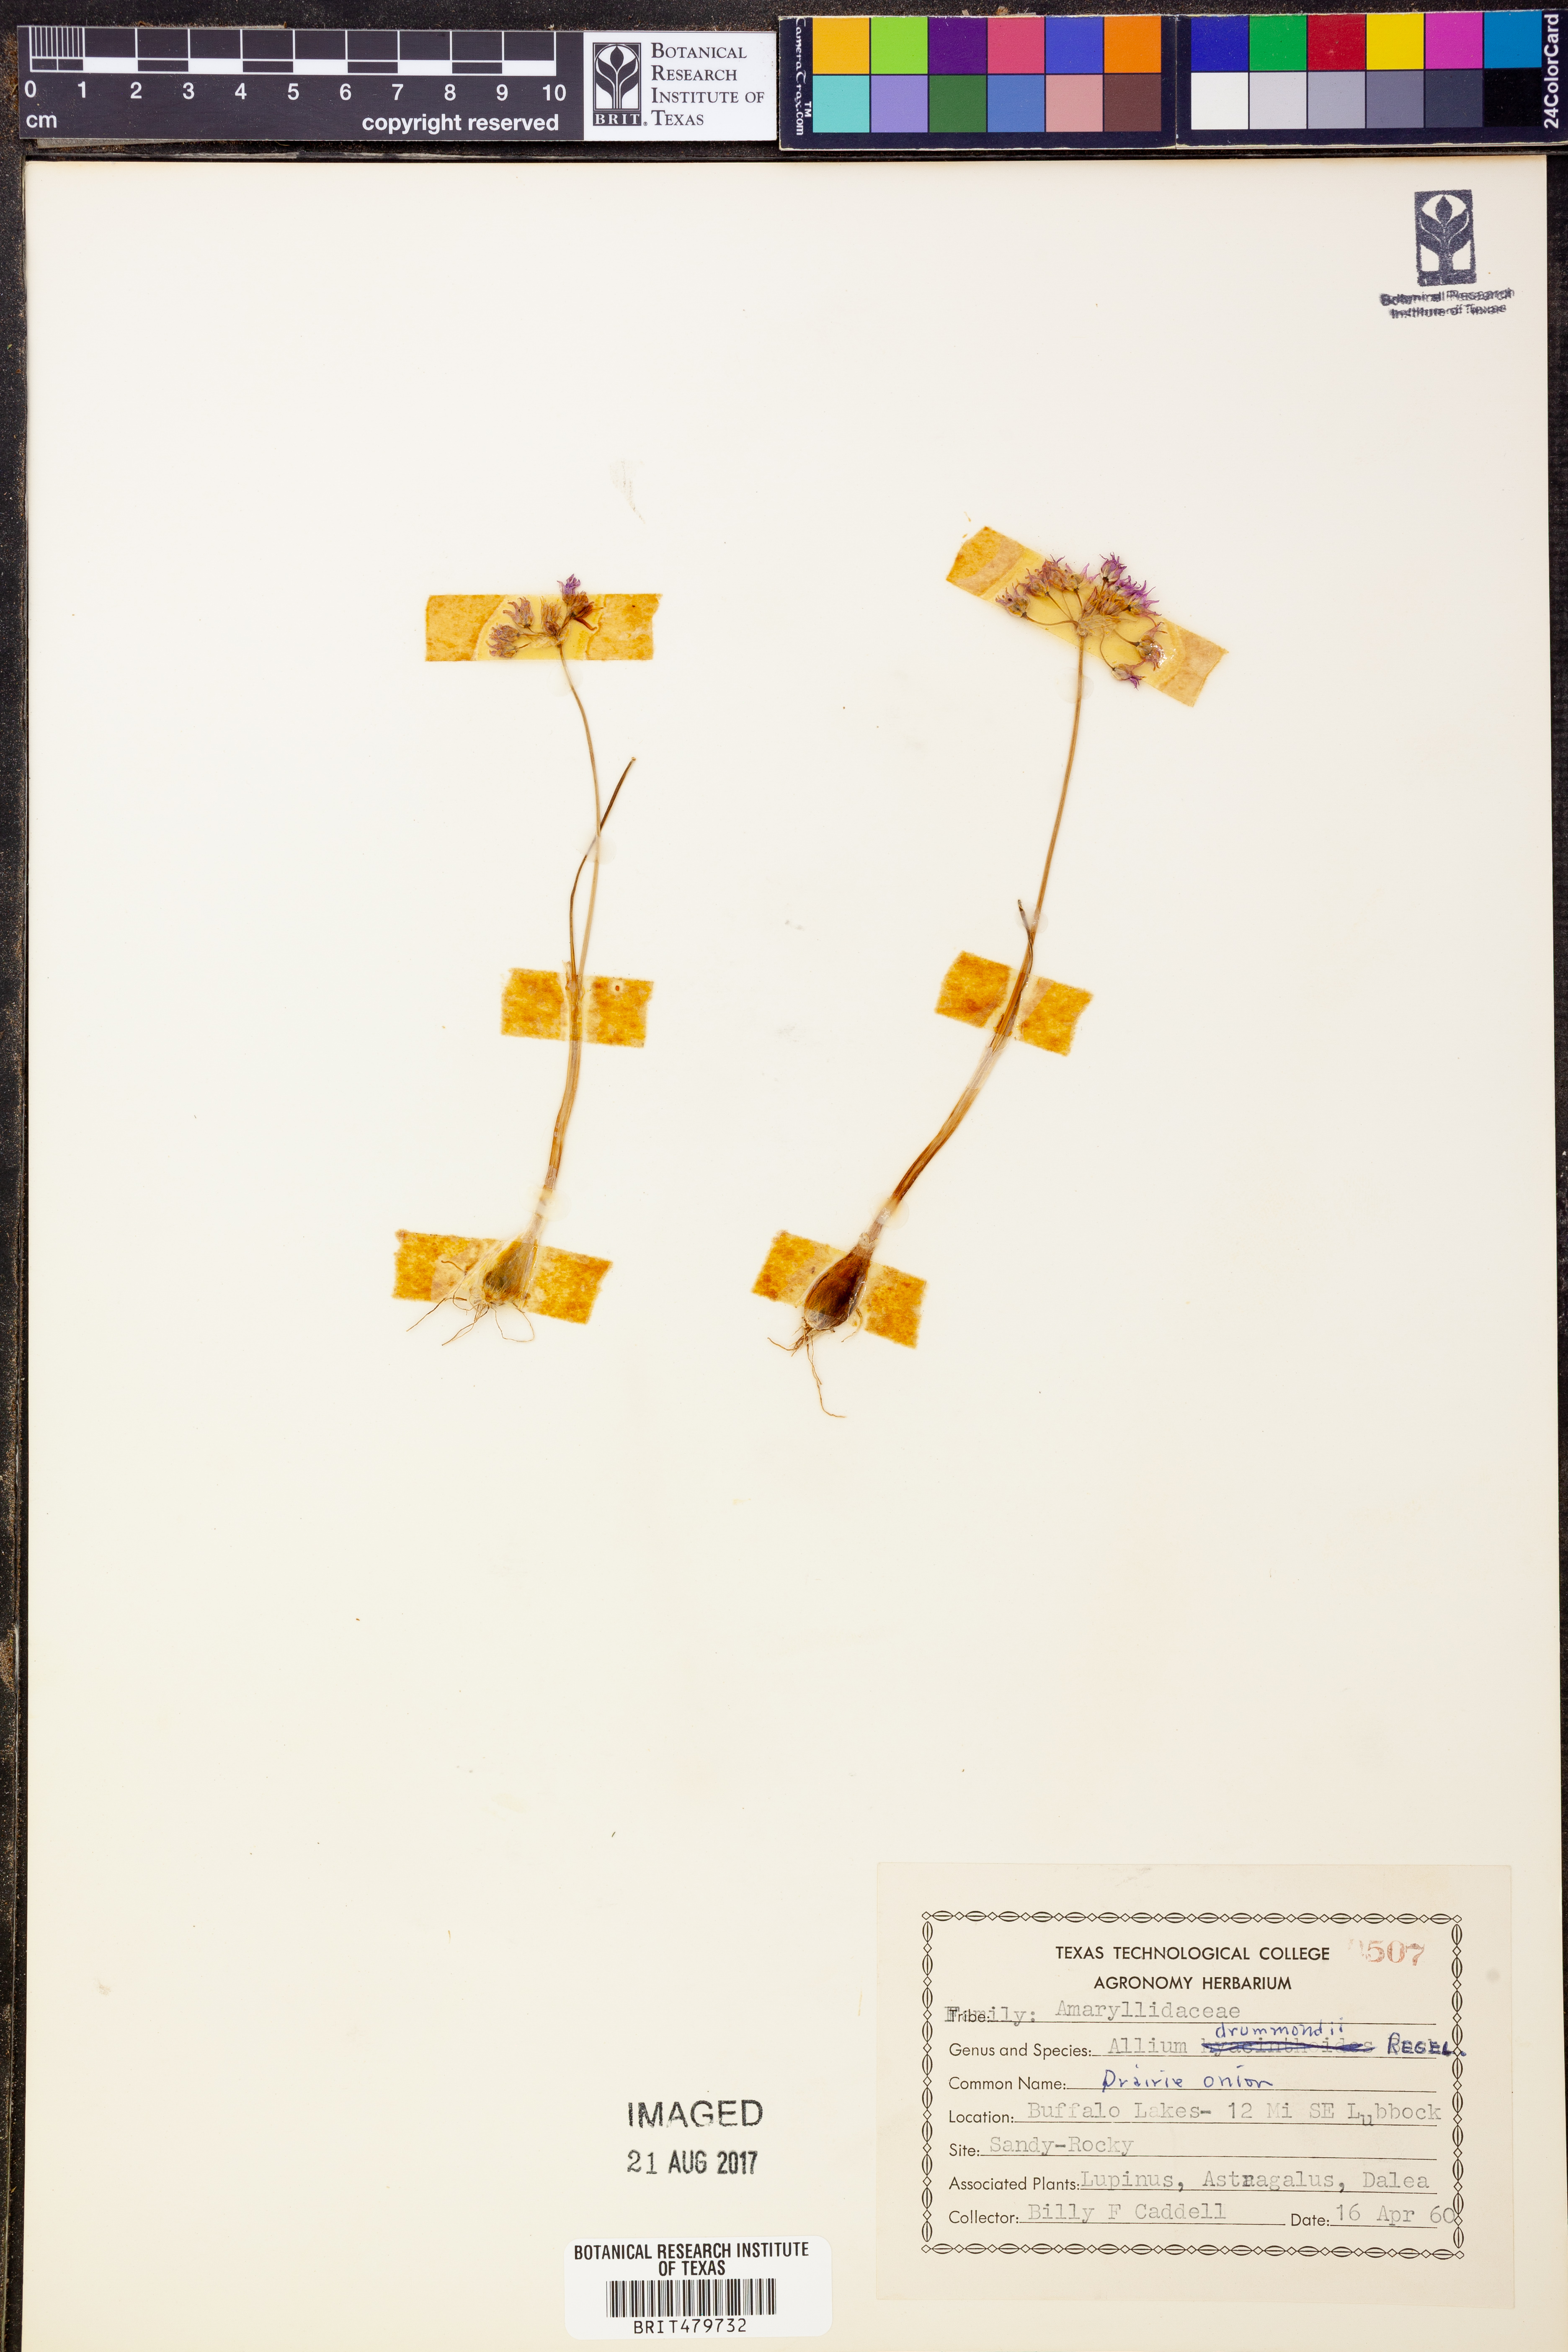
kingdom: Plantae
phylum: Tracheophyta
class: Liliopsida
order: Asparagales
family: Amaryllidaceae
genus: Allium
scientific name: Allium drummondii
